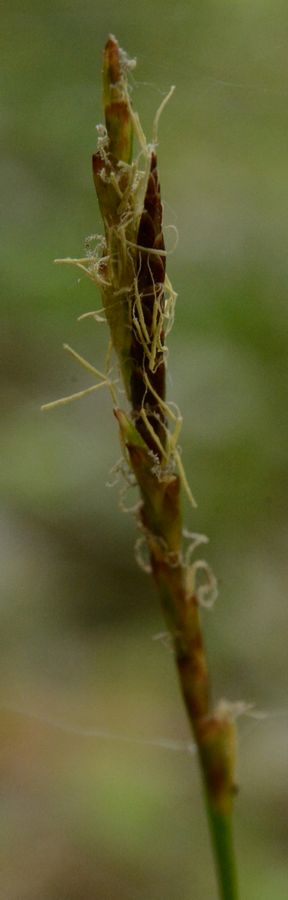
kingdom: Plantae
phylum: Tracheophyta
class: Liliopsida
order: Poales
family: Cyperaceae
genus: Carex
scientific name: Carex
